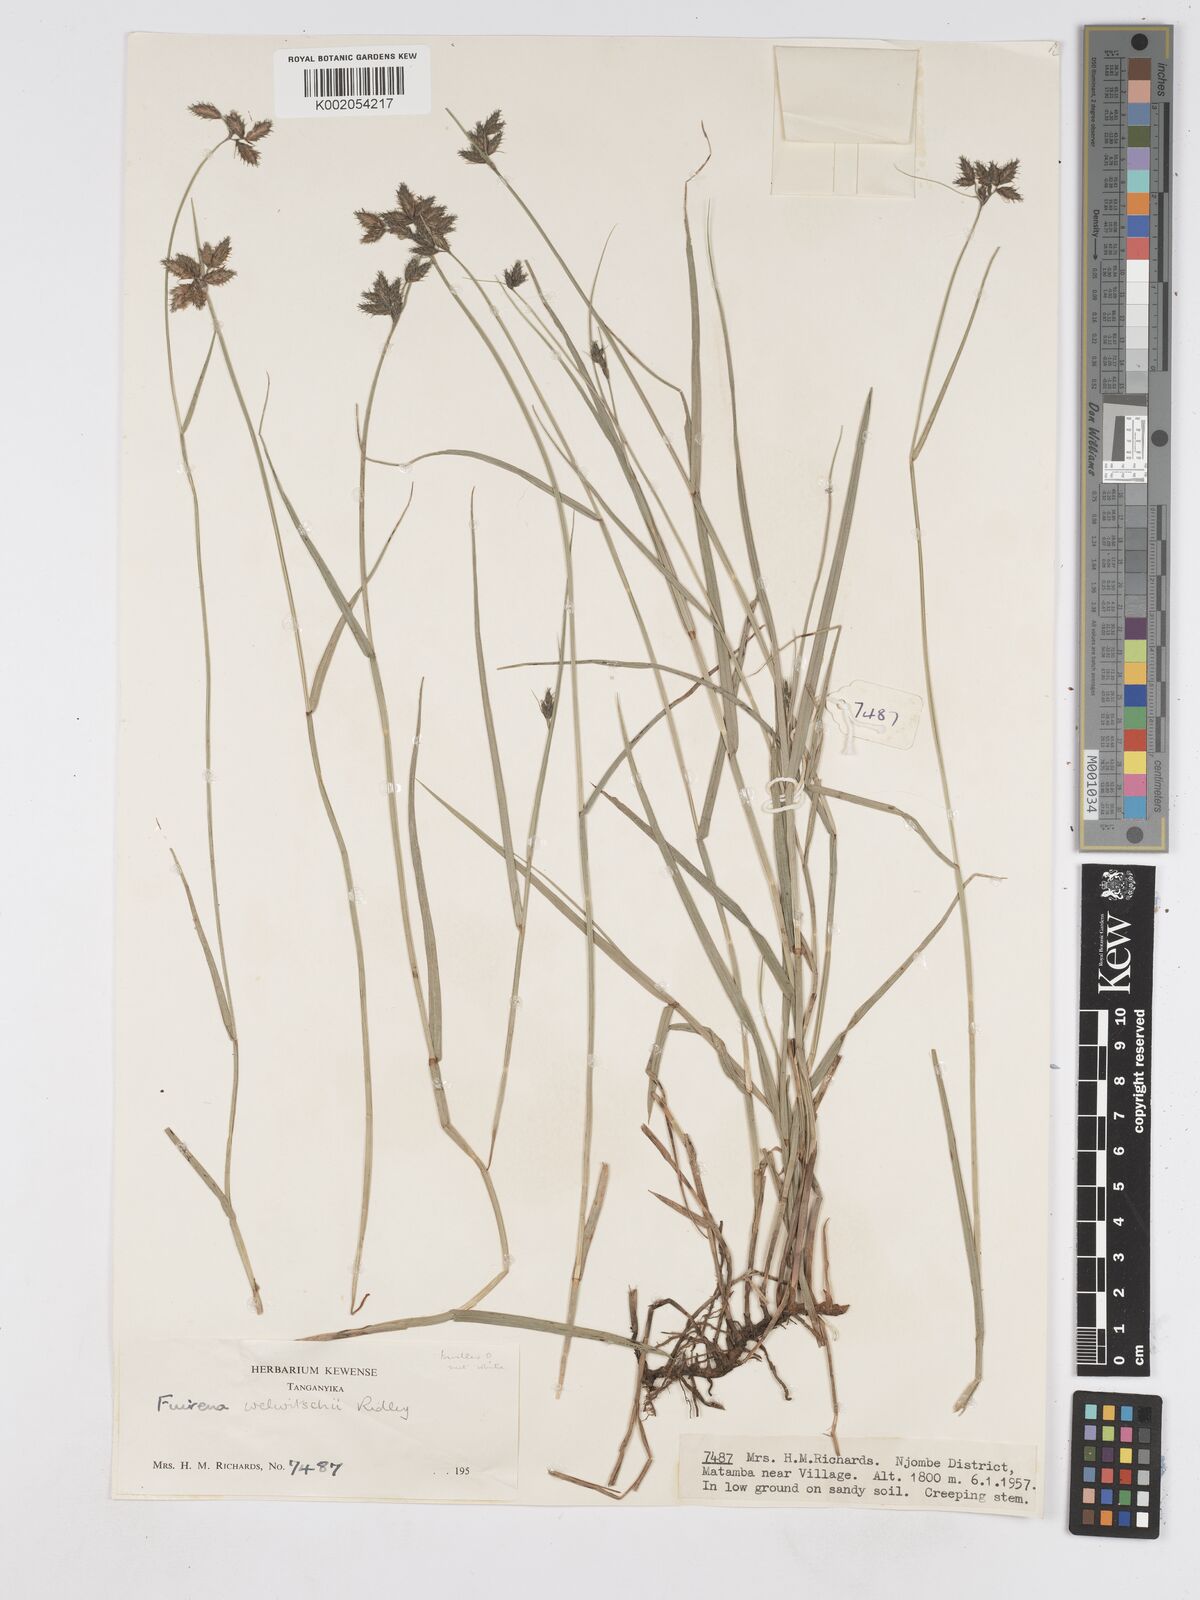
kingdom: Plantae
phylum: Tracheophyta
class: Liliopsida
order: Poales
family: Cyperaceae
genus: Fuirena
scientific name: Fuirena welwitschii
